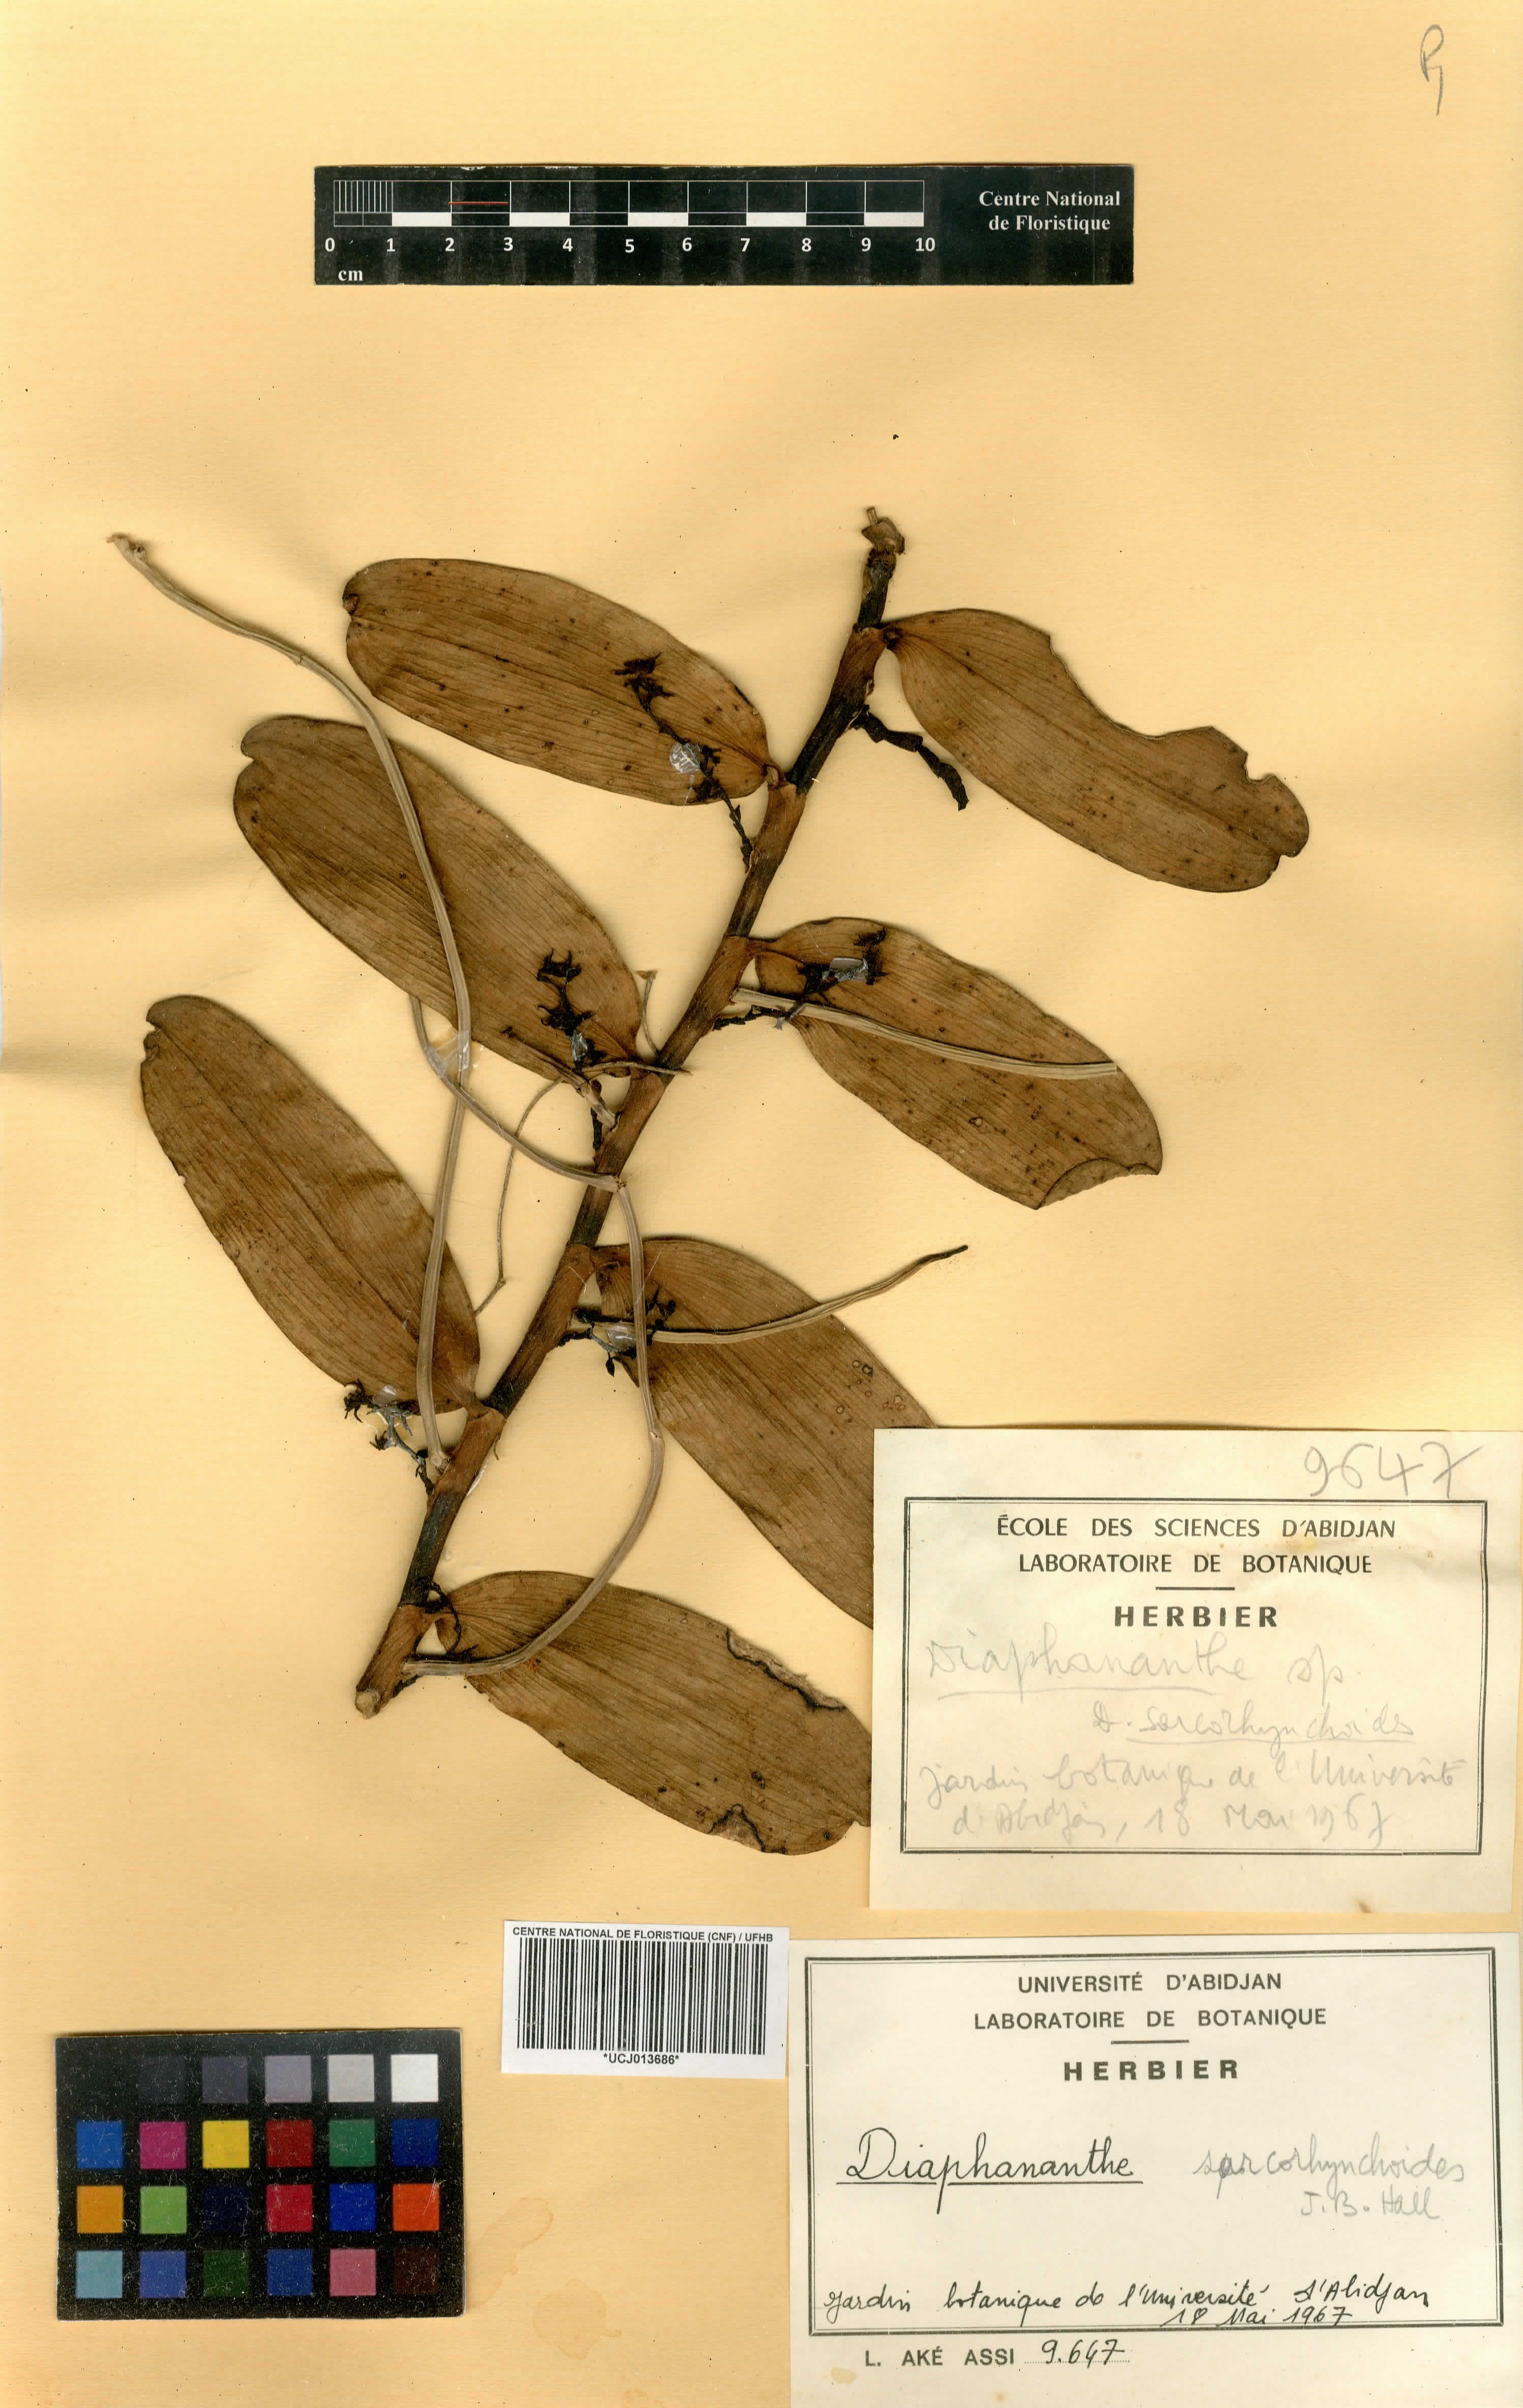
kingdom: Plantae
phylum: Tracheophyta
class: Liliopsida
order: Asparagales
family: Orchidaceae
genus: Diaphananthe
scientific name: Diaphananthe sarcorhynchoides
